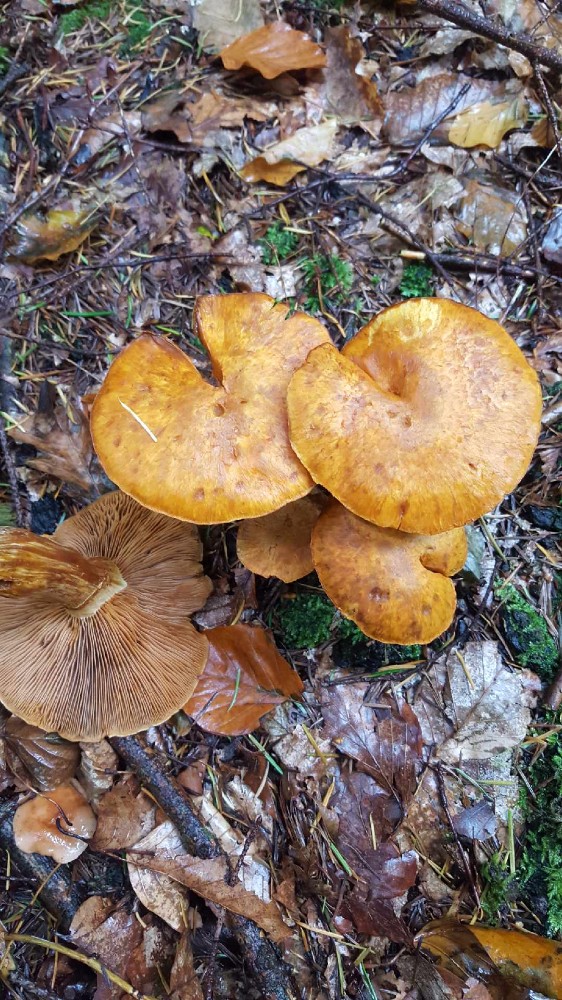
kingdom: Fungi
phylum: Basidiomycota
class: Agaricomycetes
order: Agaricales
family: Hymenogastraceae
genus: Gymnopilus
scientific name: Gymnopilus spectabilis
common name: fibret flammehat
